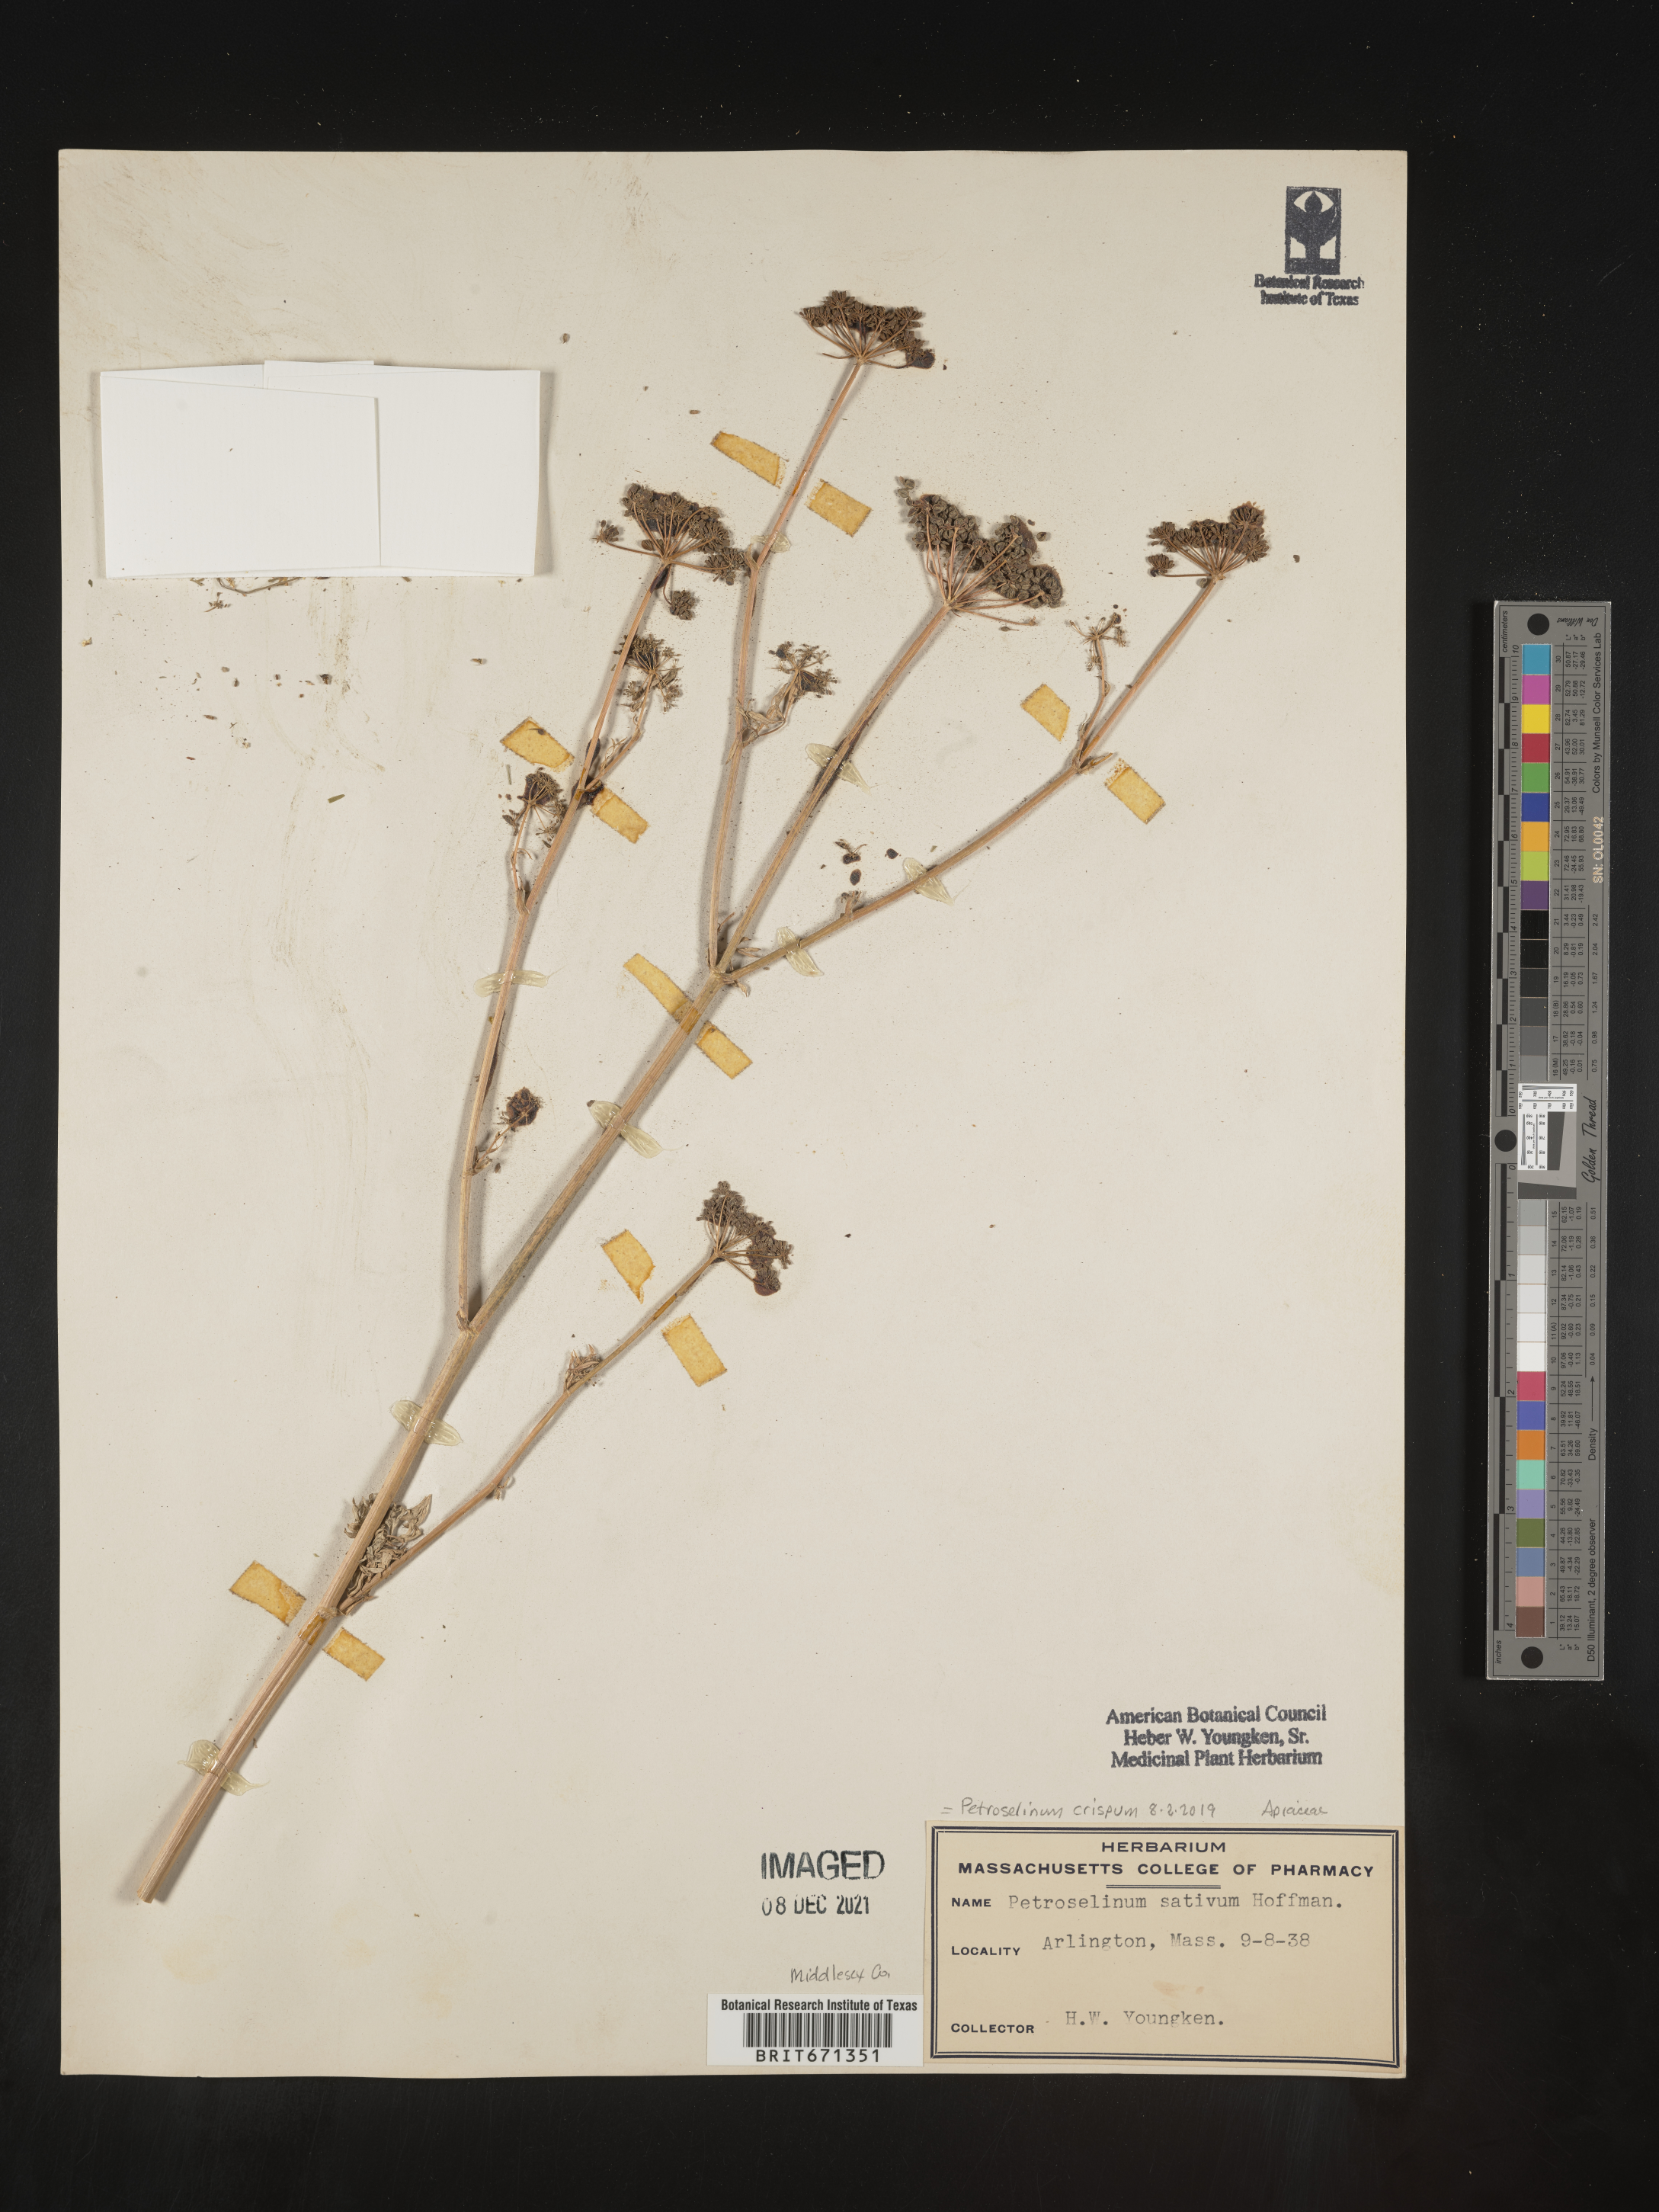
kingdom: Plantae
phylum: Tracheophyta
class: Magnoliopsida
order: Apiales
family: Apiaceae
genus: Petroselinum
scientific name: Petroselinum
